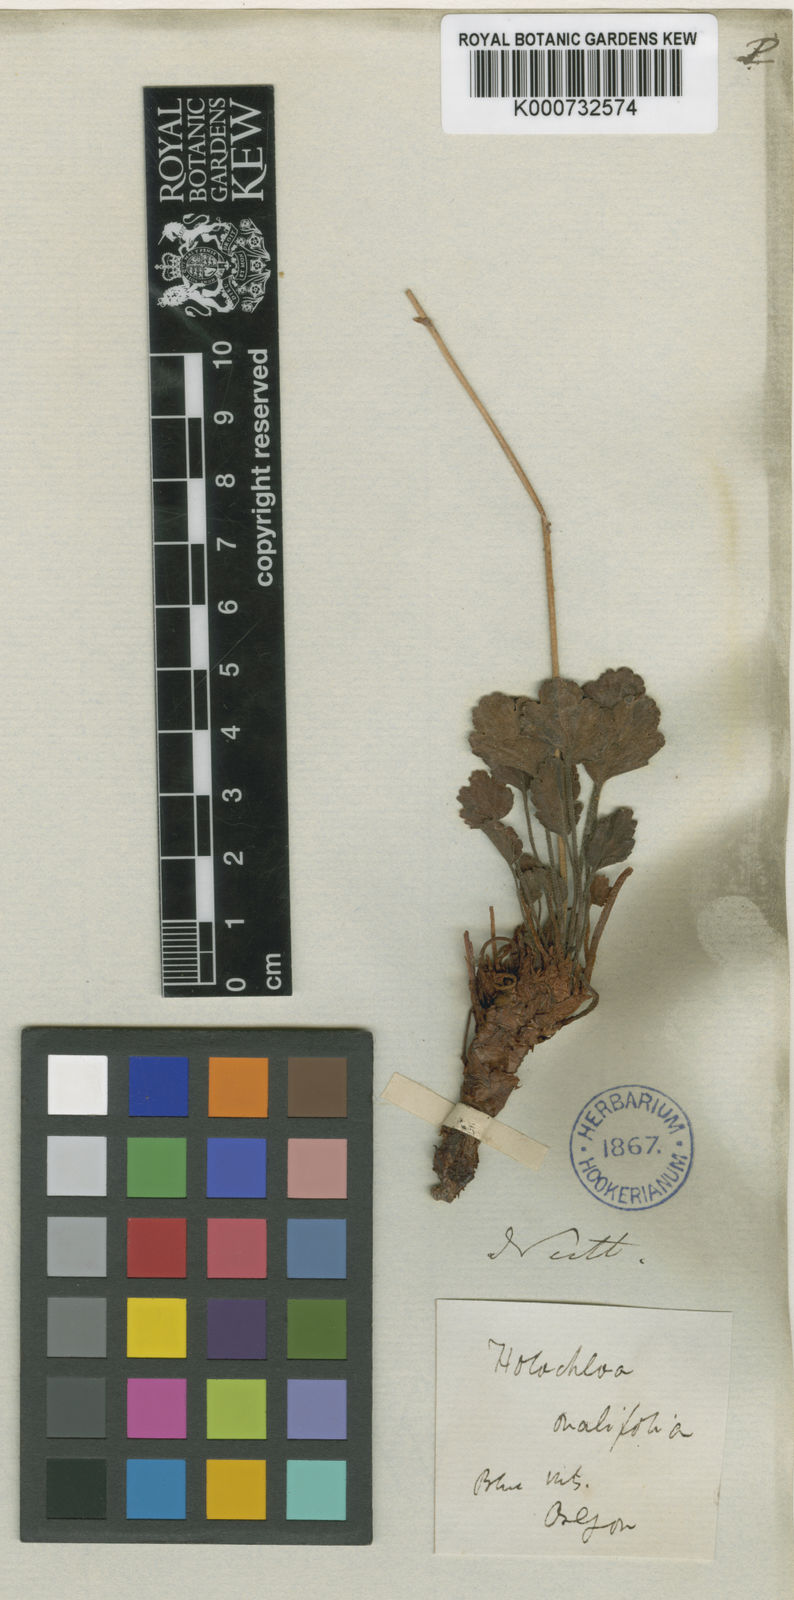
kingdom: Plantae
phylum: Tracheophyta
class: Magnoliopsida
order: Saxifragales
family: Saxifragaceae
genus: Heuchera
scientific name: Heuchera
